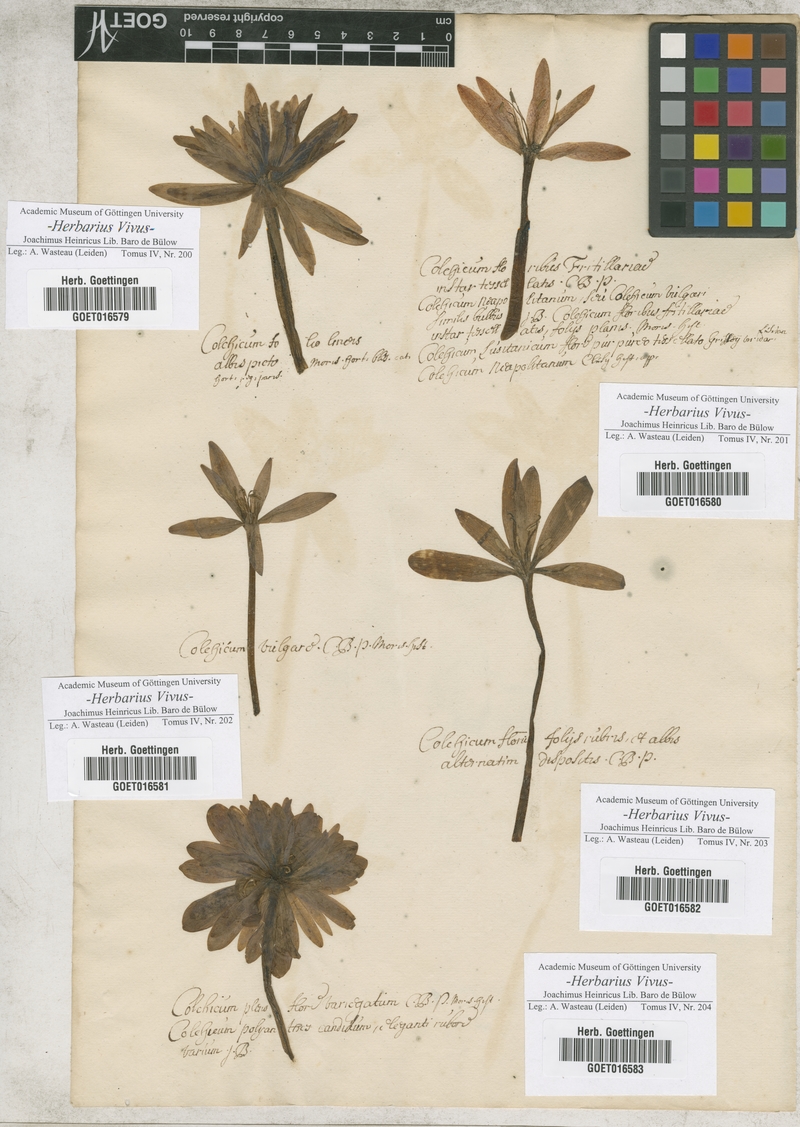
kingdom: Plantae
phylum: Tracheophyta
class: Liliopsida
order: Liliales
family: Colchicaceae
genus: Colchicum
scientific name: Colchicum
